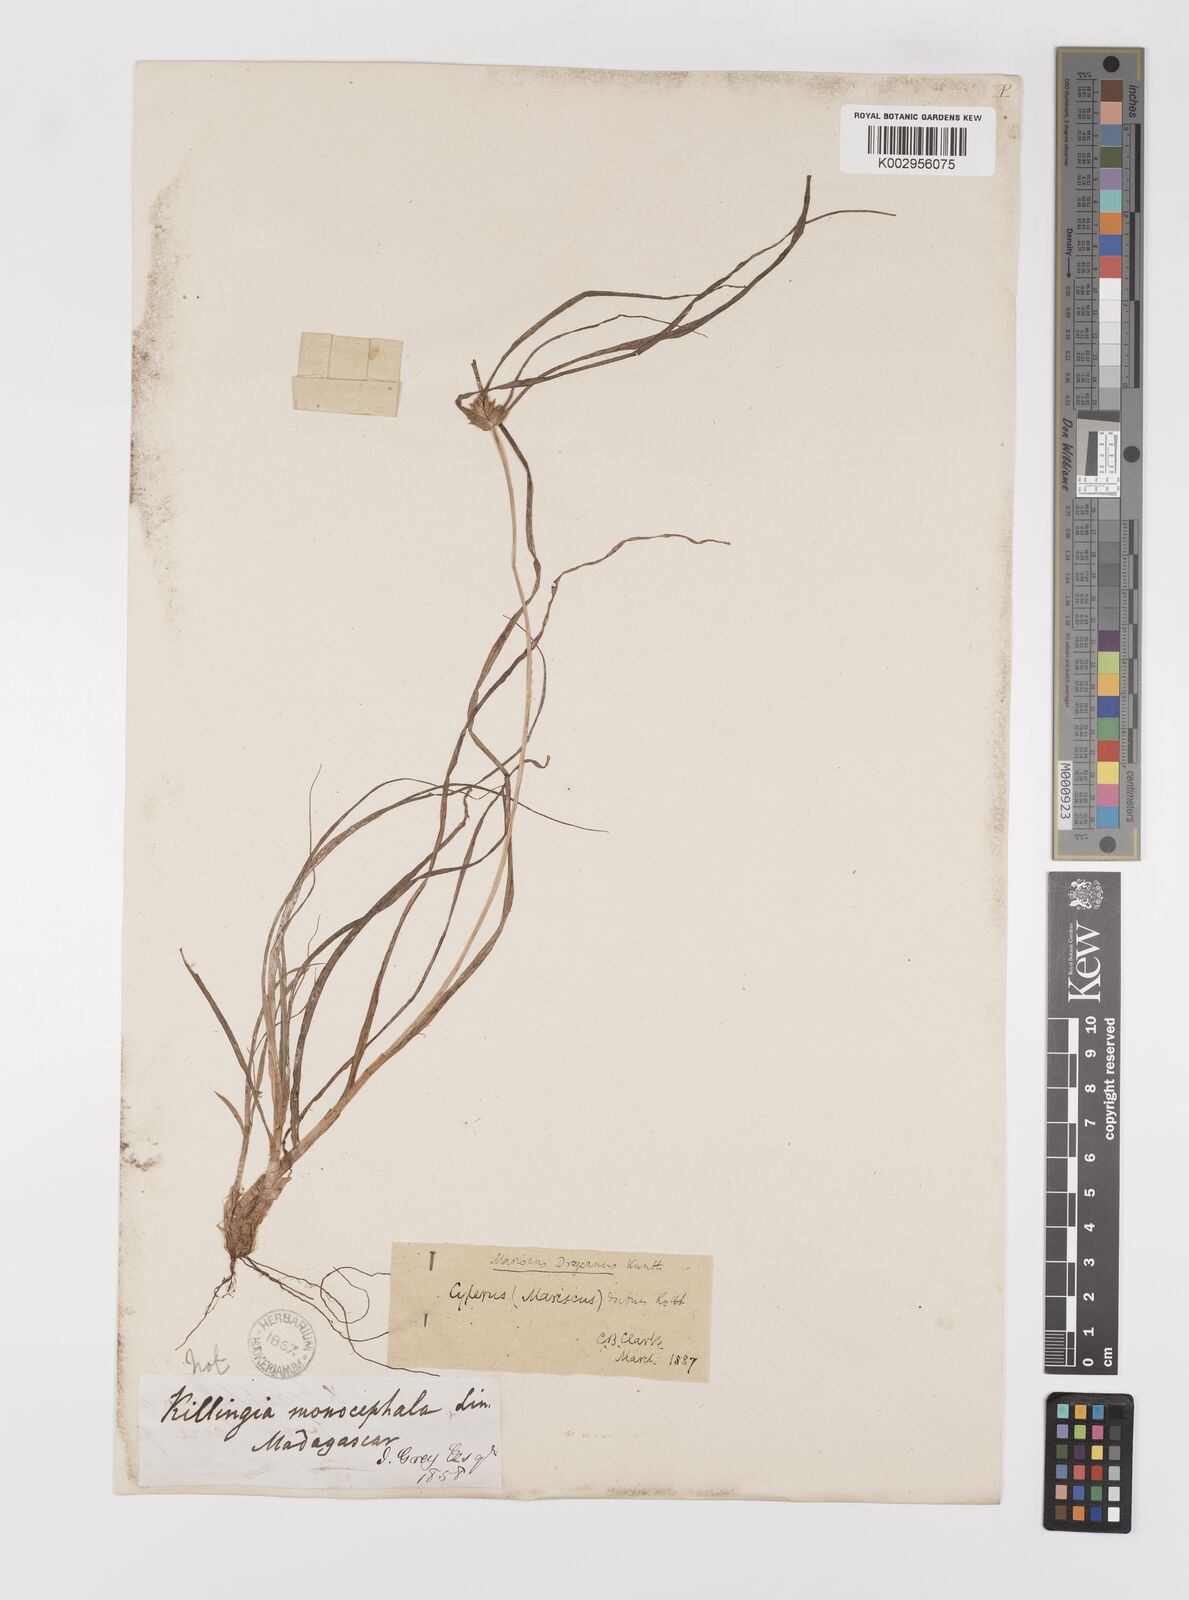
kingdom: Plantae
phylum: Tracheophyta
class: Liliopsida
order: Poales
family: Cyperaceae
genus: Cyperus
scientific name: Cyperus dubius
